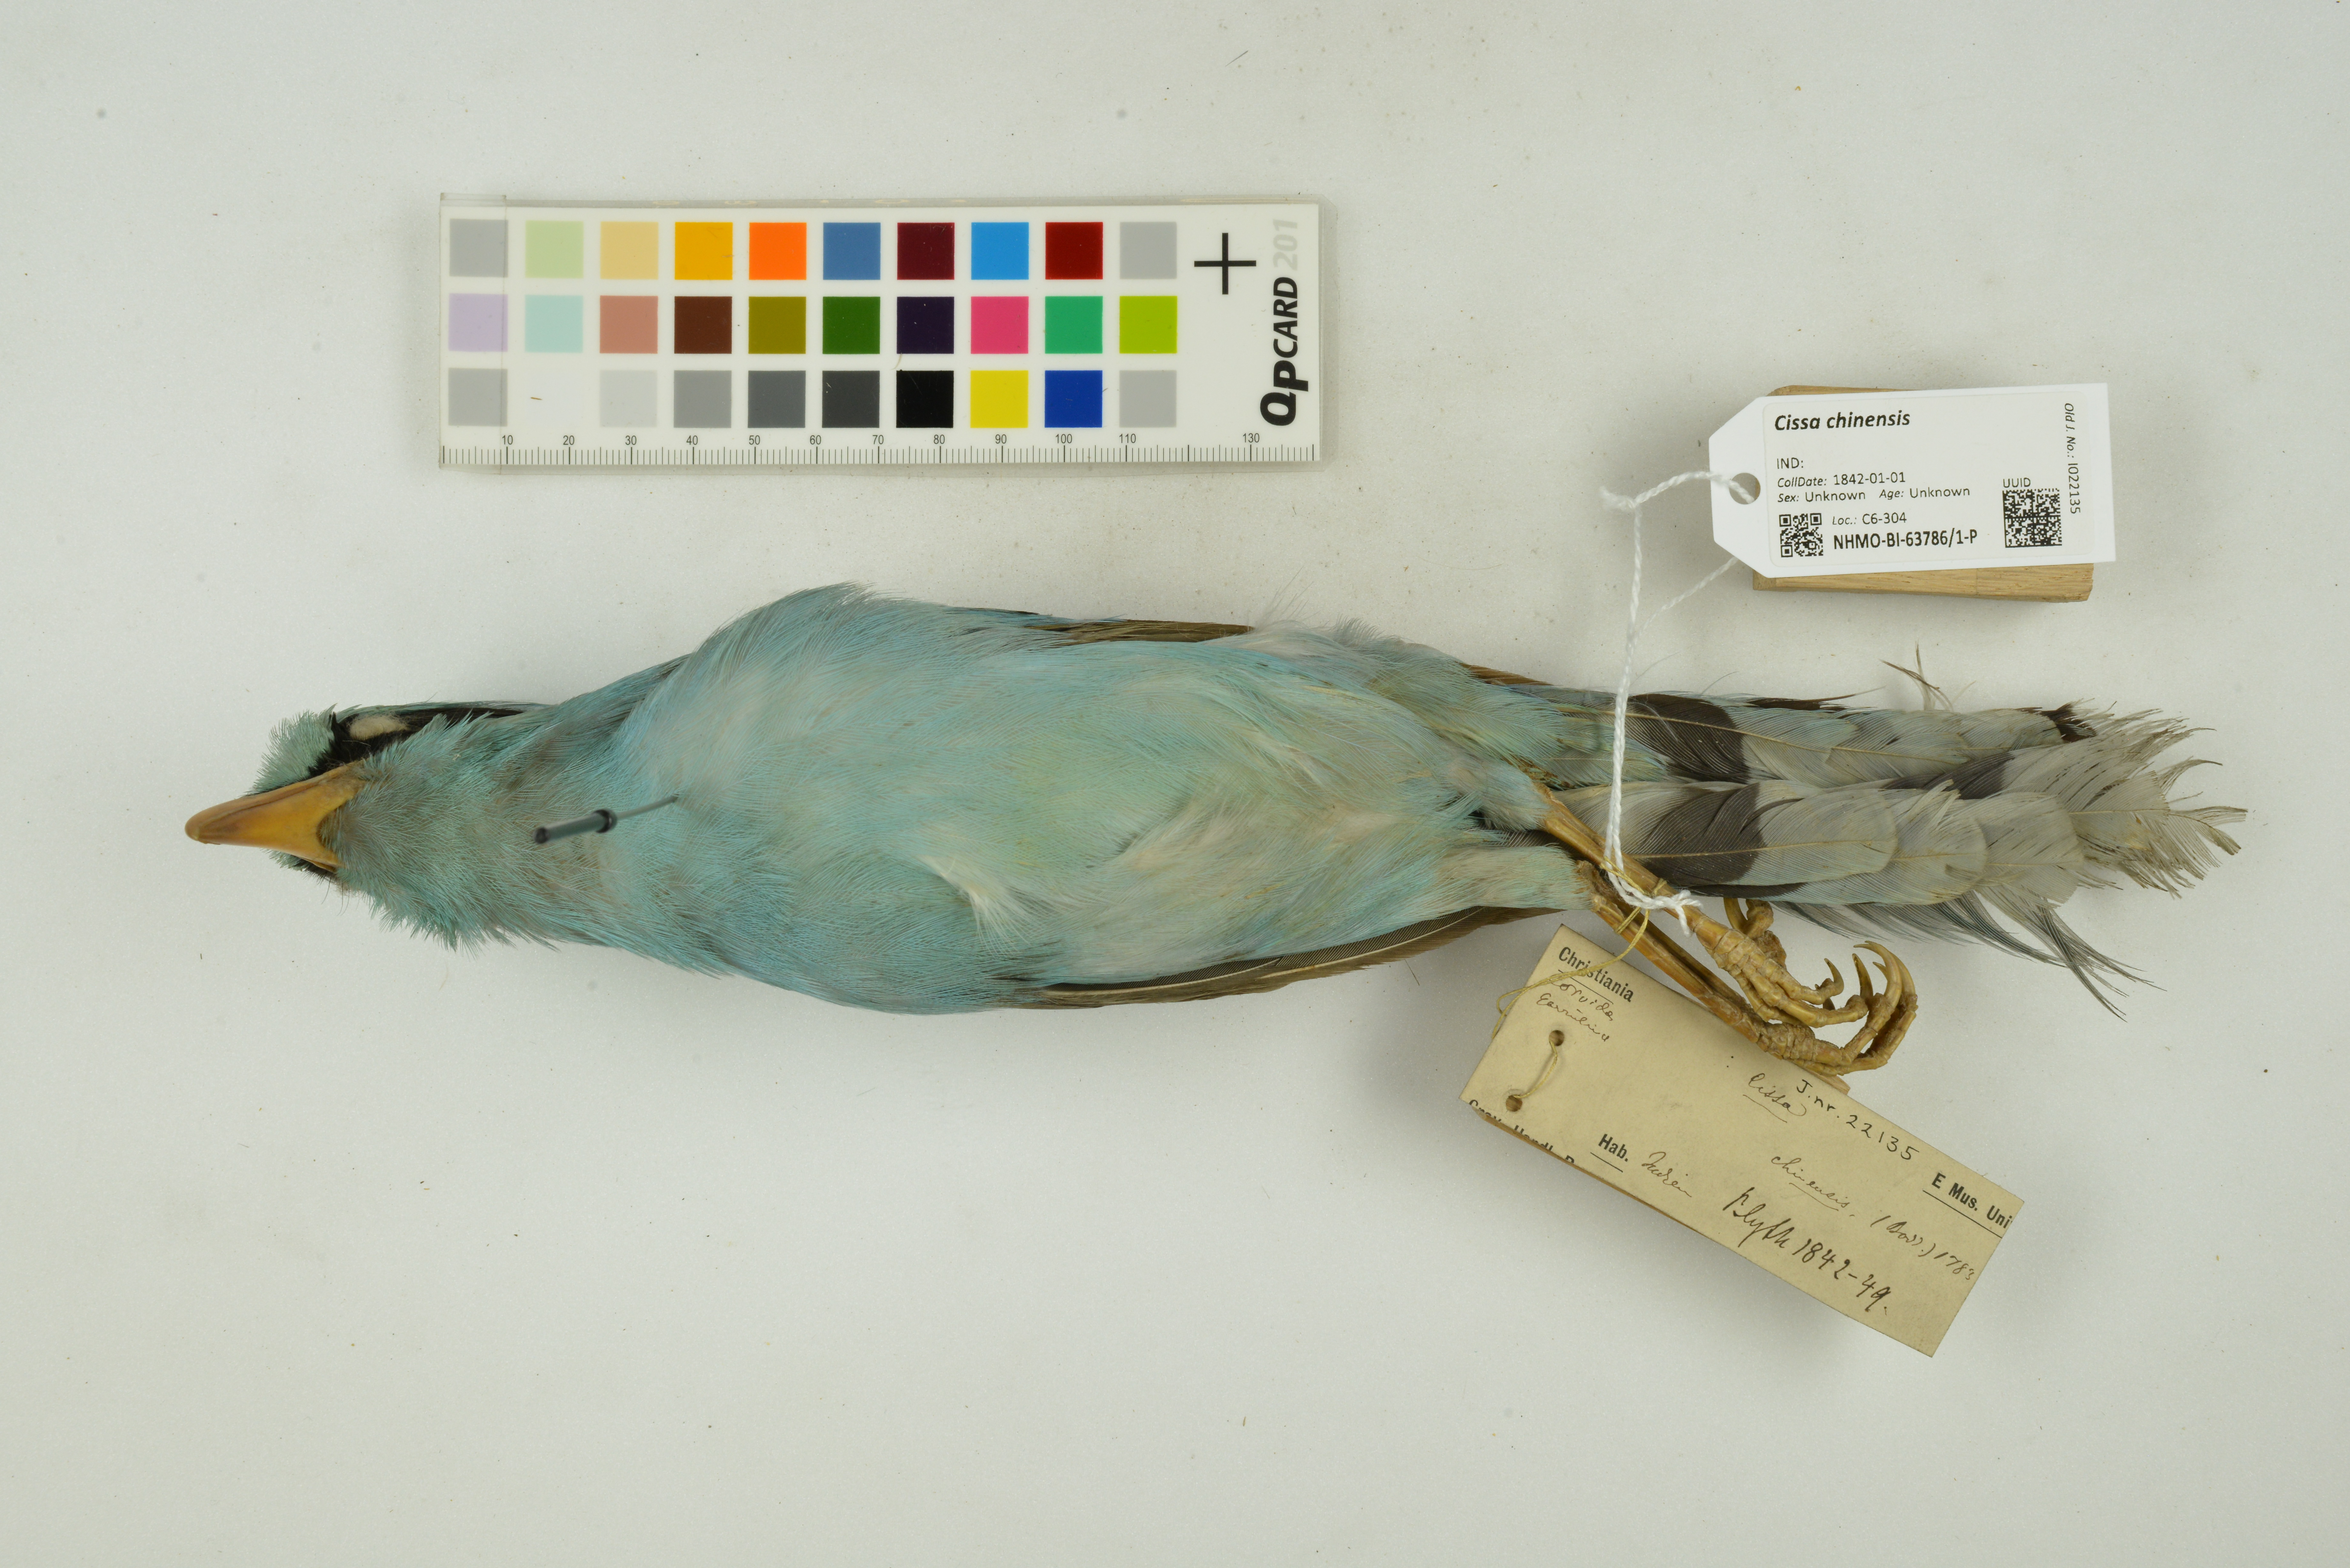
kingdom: Animalia
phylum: Chordata
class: Aves
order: Passeriformes
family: Corvidae
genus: Cissa
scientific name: Cissa chinensis
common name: Common green magpie
